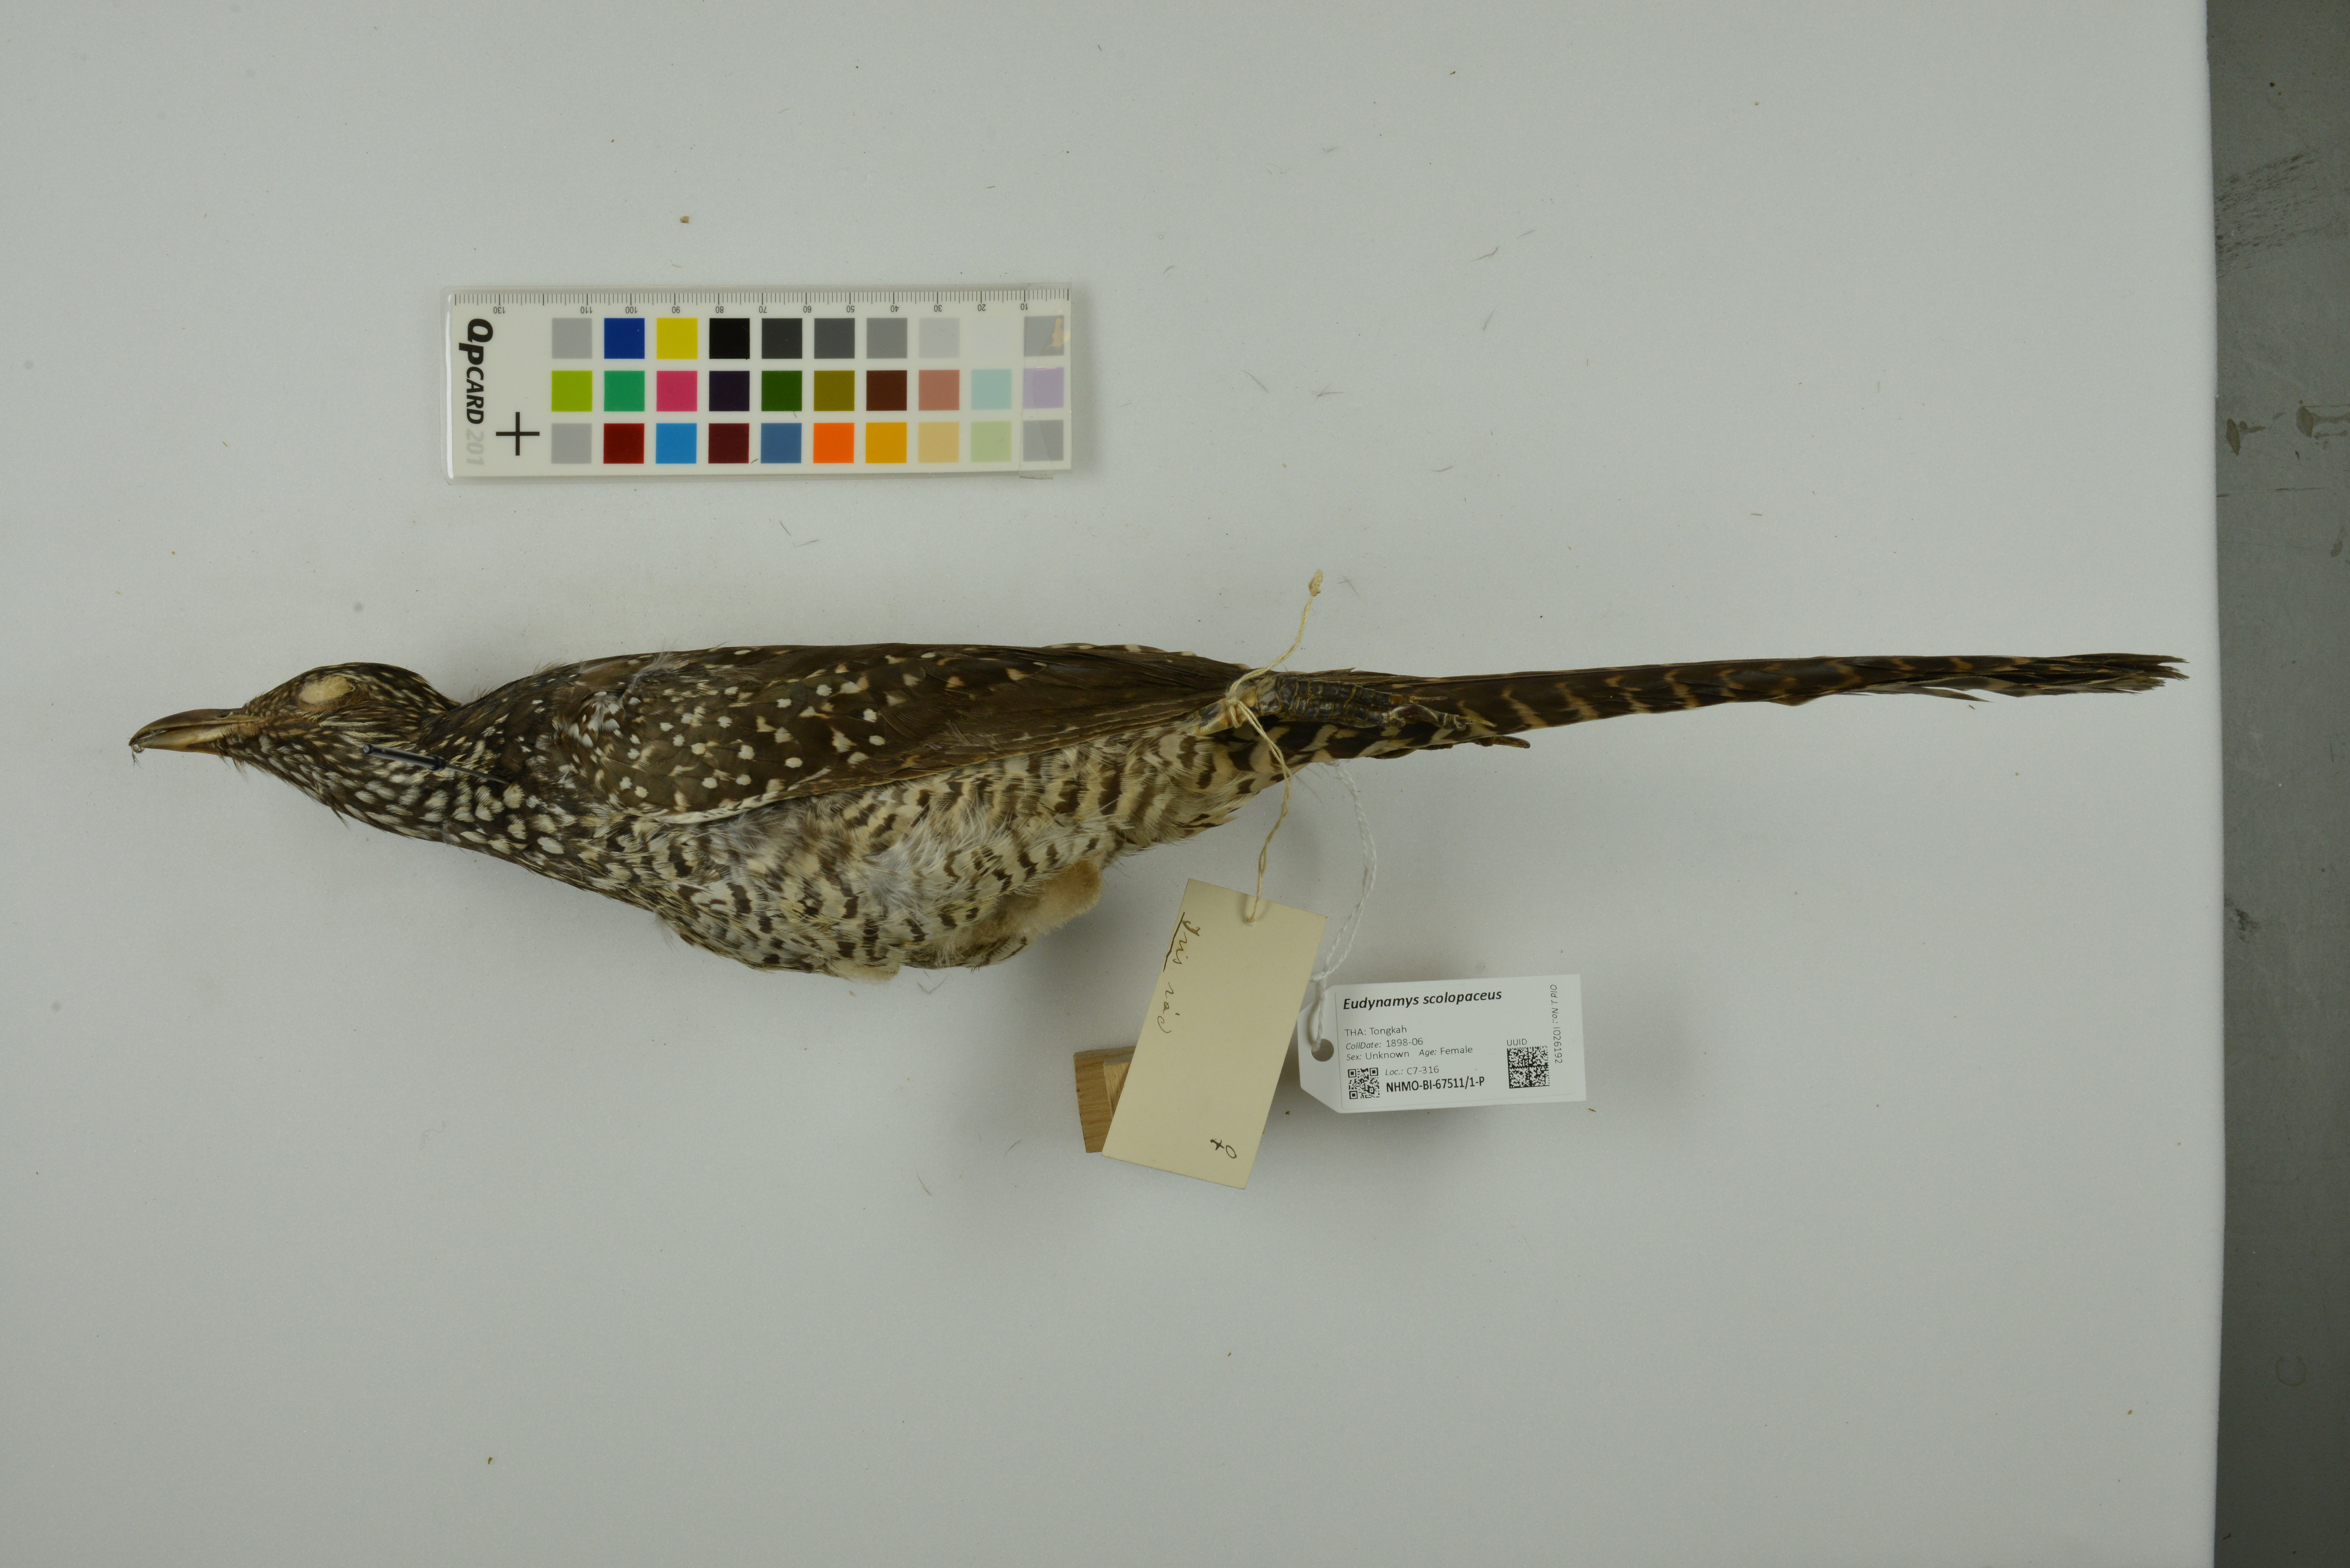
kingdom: Animalia
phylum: Chordata
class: Aves
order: Cuculiformes
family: Cuculidae
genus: Eudynamys
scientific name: Eudynamys scolopaceus
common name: Asian koel
